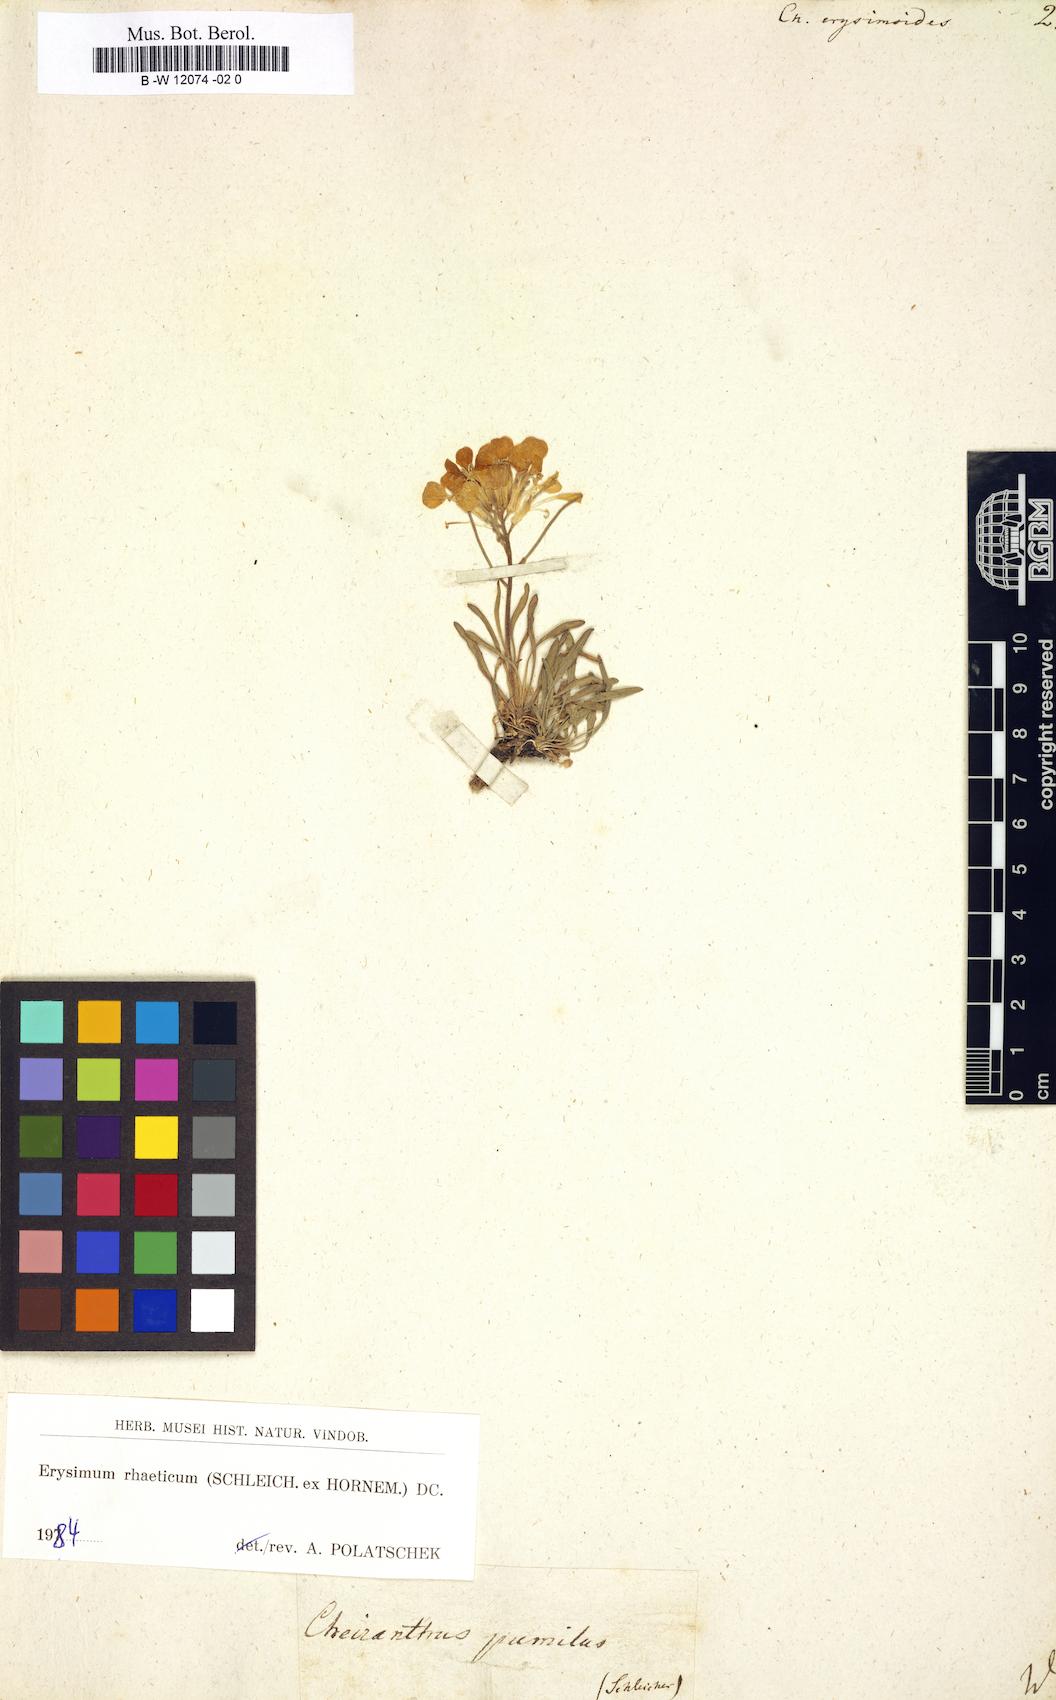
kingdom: Plantae
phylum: Tracheophyta
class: Magnoliopsida
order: Brassicales
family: Brassicaceae
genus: Erysimum
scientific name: Erysimum
